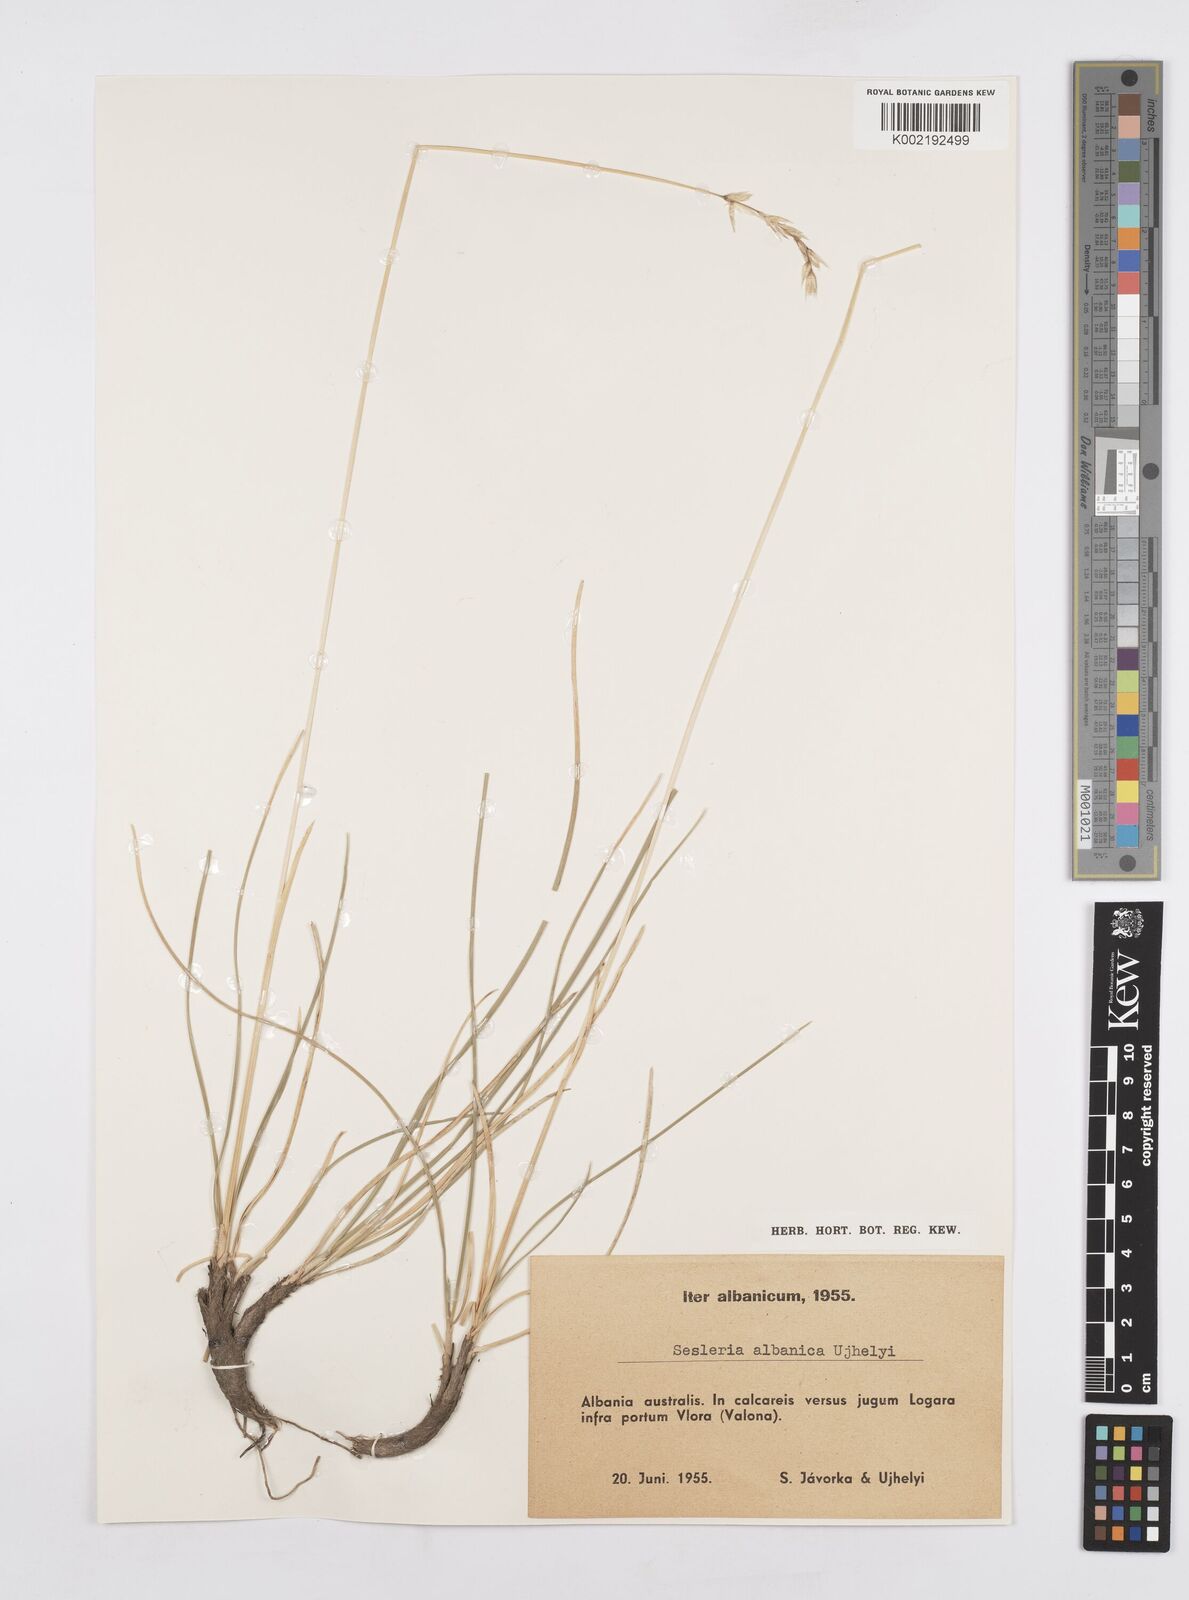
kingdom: Plantae
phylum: Tracheophyta
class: Liliopsida
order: Poales
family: Poaceae
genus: Sesleria
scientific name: Sesleria juncifolia
